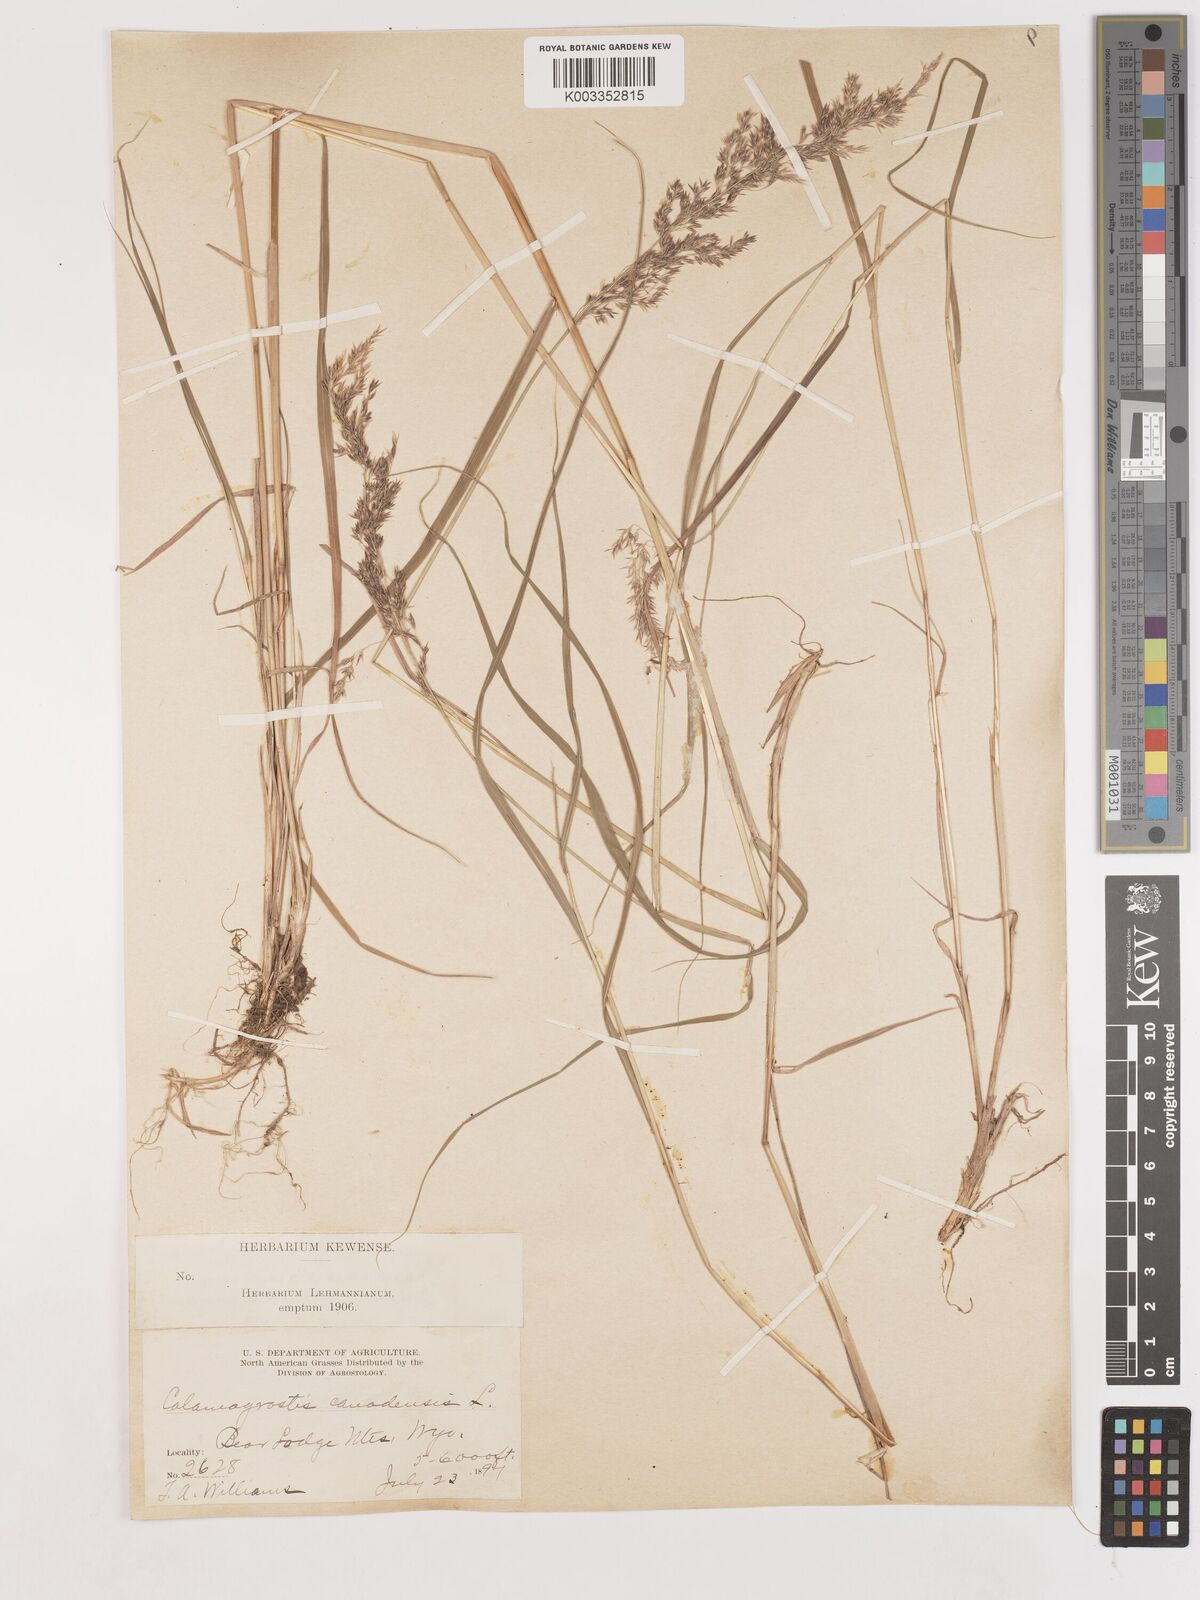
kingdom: Plantae
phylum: Tracheophyta
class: Liliopsida
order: Poales
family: Poaceae
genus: Calamagrostis
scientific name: Calamagrostis canadensis
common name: Canada bluejoint
